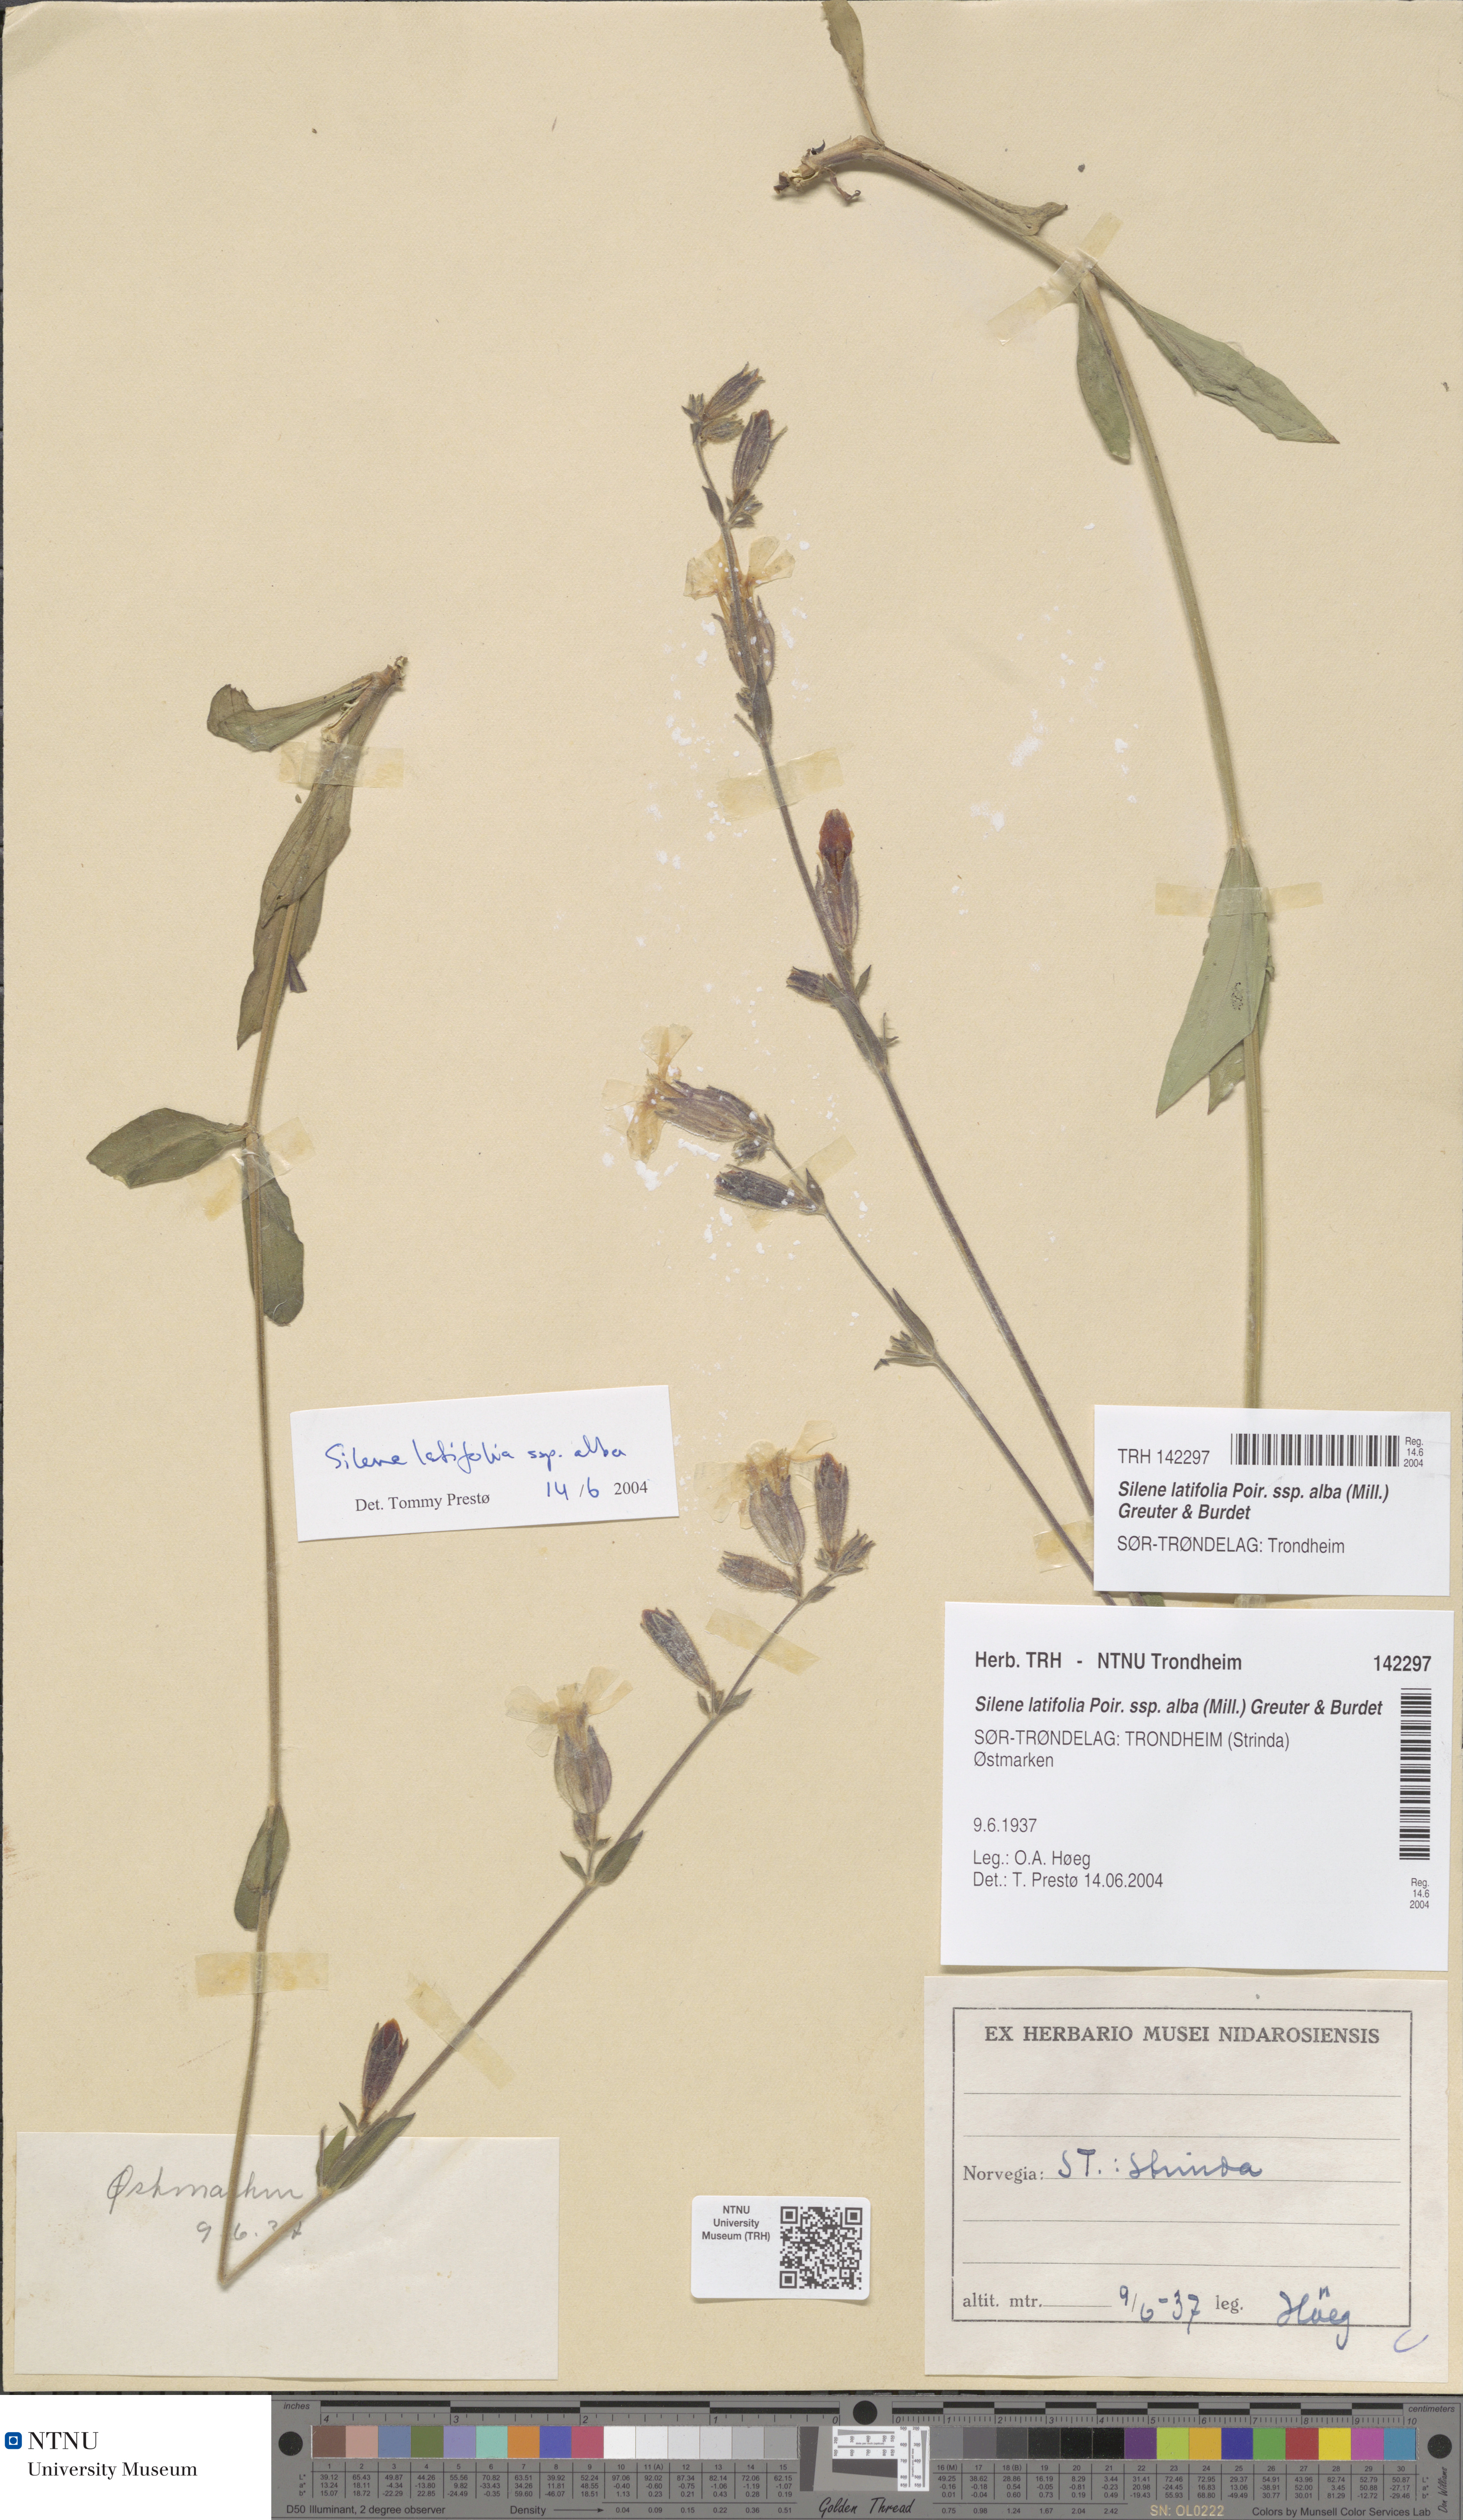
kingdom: Plantae
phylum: Tracheophyta
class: Magnoliopsida
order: Caryophyllales
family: Caryophyllaceae
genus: Silene
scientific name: Silene latifolia
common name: White campion
